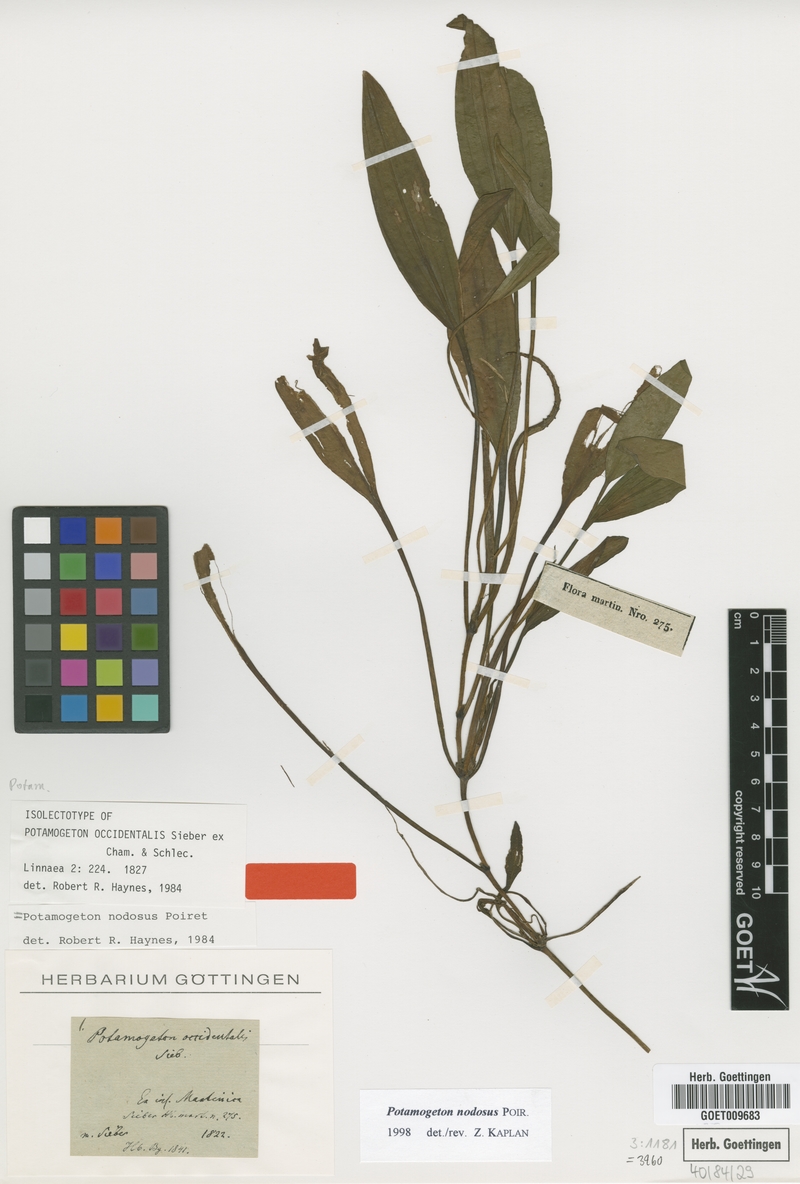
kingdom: Plantae
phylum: Tracheophyta
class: Liliopsida
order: Alismatales
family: Potamogetonaceae
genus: Potamogeton
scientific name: Potamogeton nodosus
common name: Loddon pondweed
